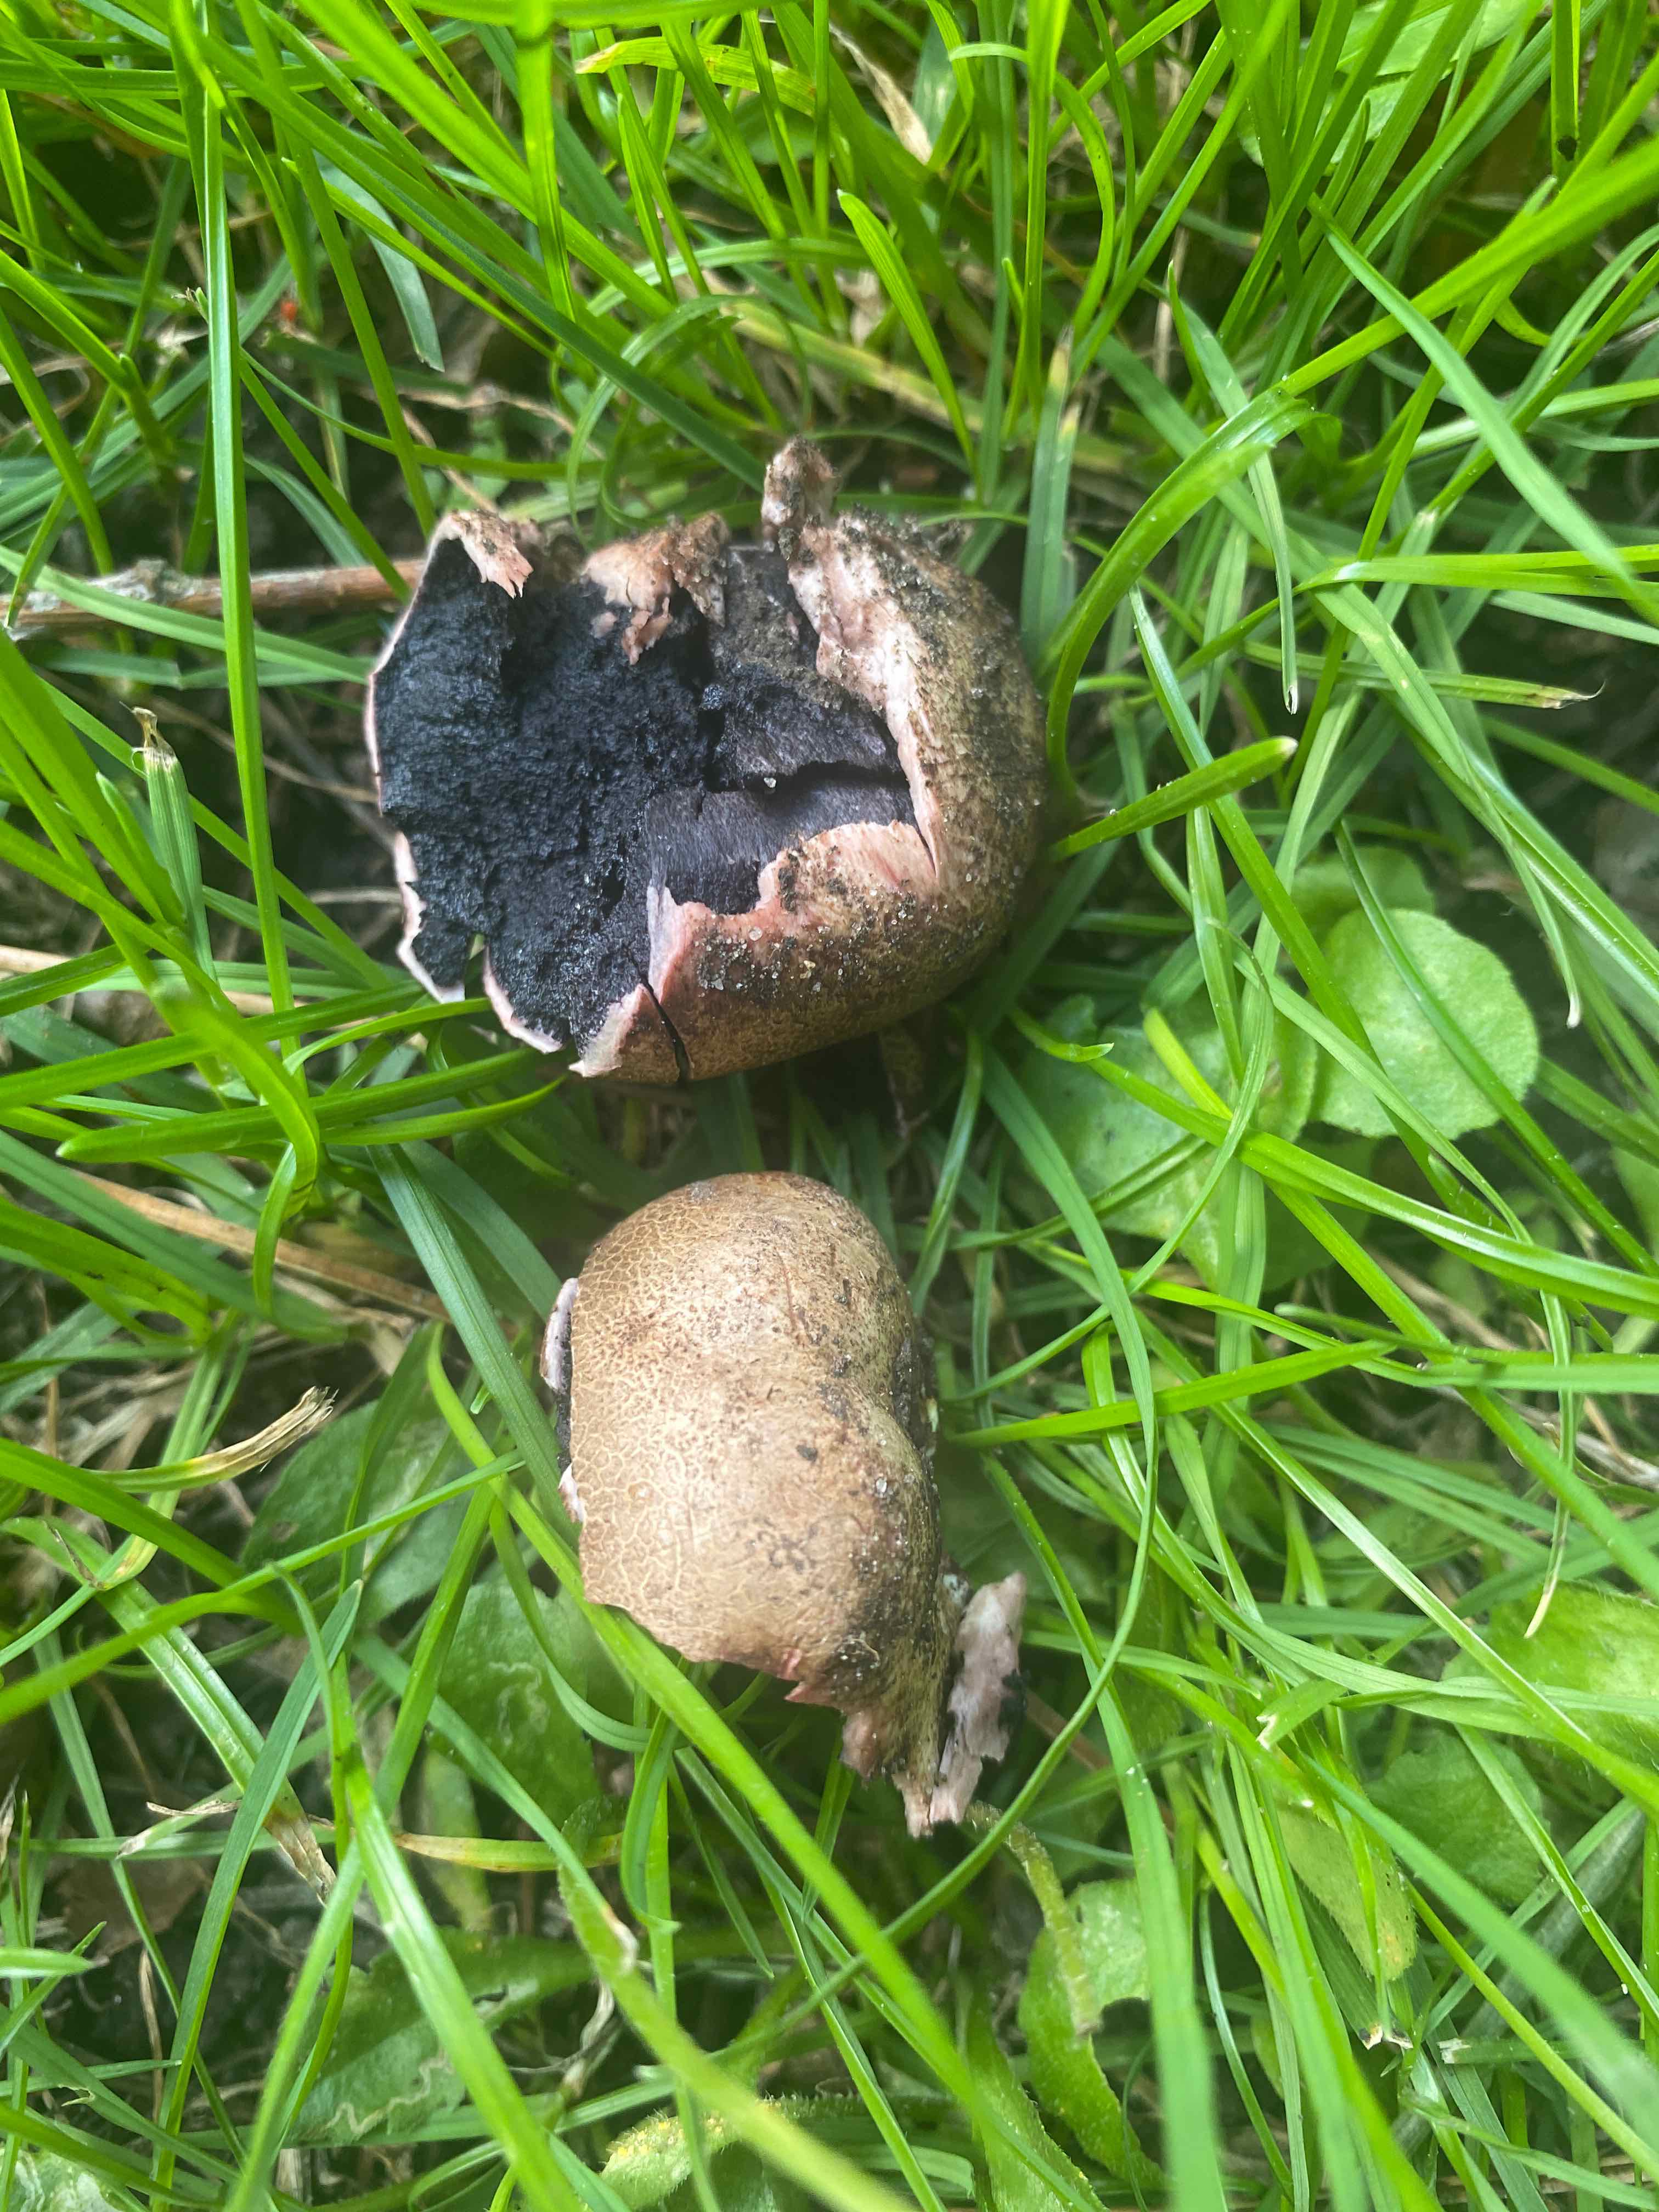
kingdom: Fungi
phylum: Basidiomycota
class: Agaricomycetes
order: Boletales
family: Sclerodermataceae
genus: Scleroderma
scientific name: Scleroderma verrucosum
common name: stilket bruskbold
